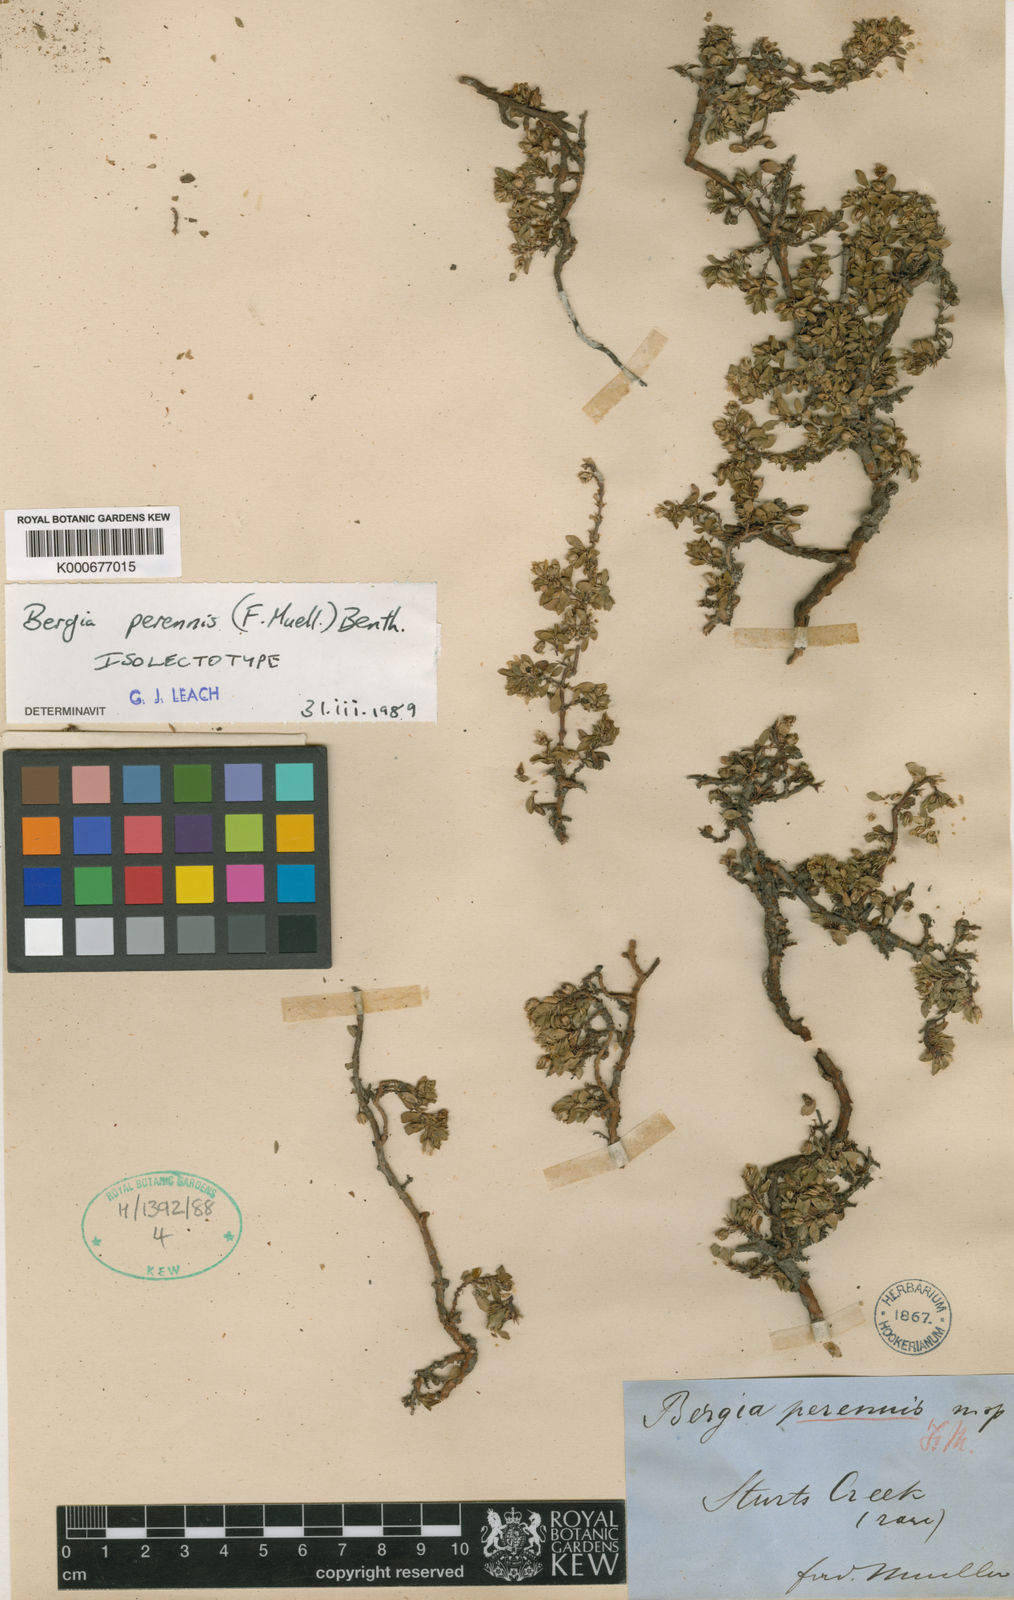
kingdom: Plantae
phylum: Tracheophyta
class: Magnoliopsida
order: Malpighiales
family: Elatinaceae
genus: Bergia
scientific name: Bergia perennis
